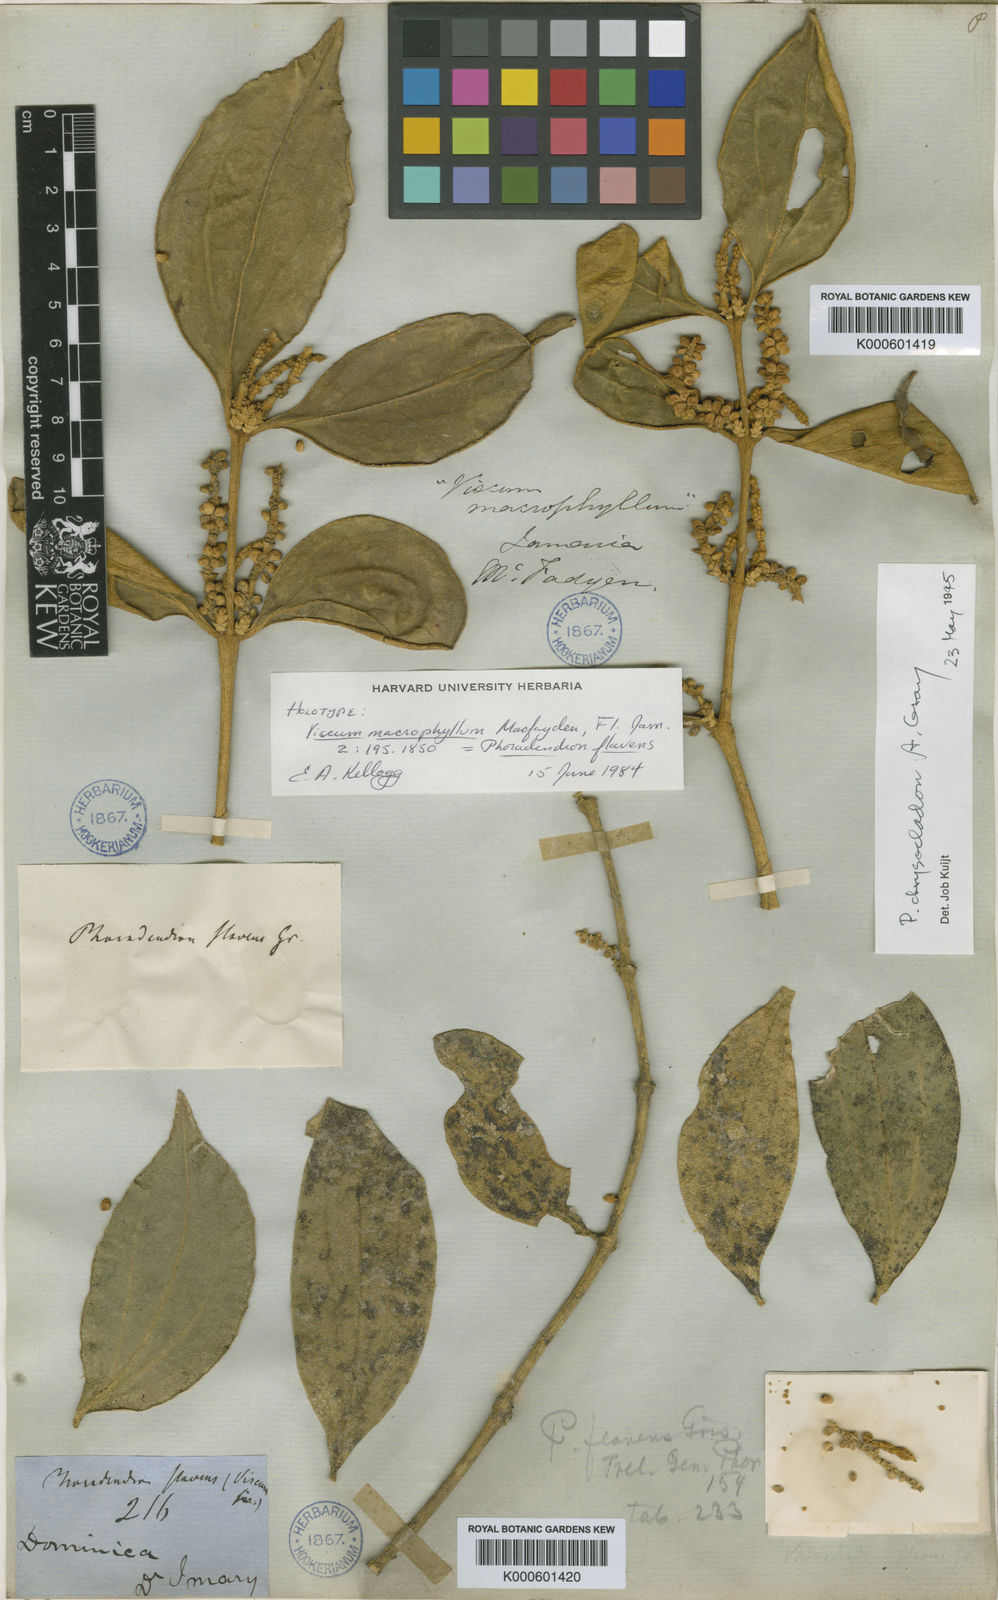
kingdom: Plantae
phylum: Tracheophyta
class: Magnoliopsida
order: Santalales
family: Viscaceae
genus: Phoradendron
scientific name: Phoradendron chrysocladon
